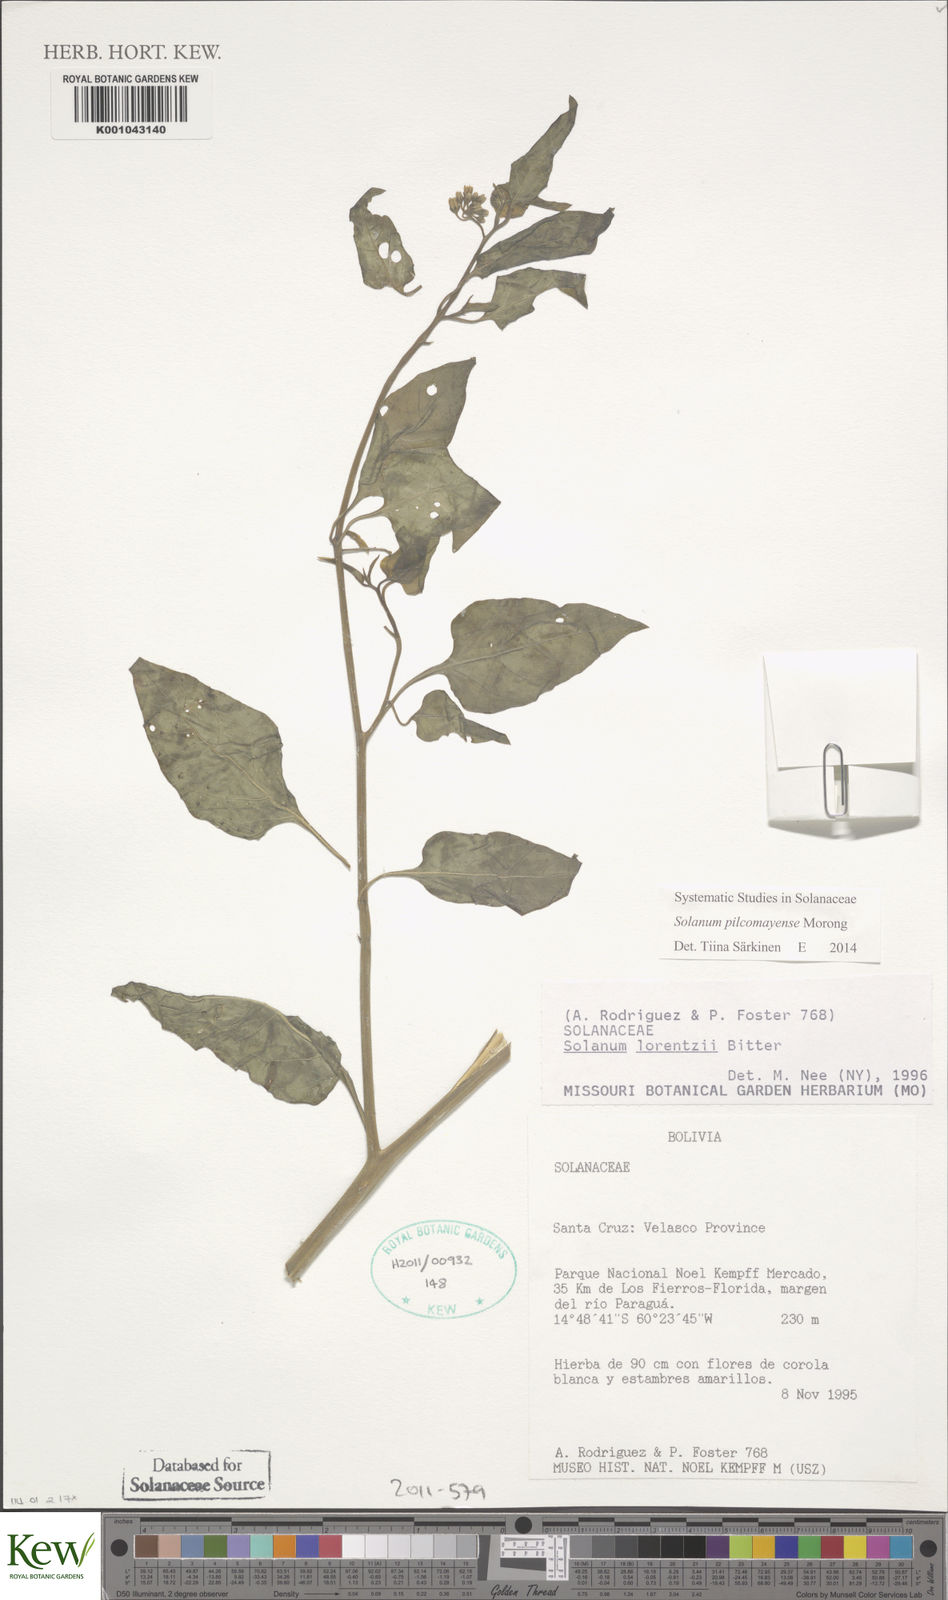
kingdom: Plantae
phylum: Tracheophyta
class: Magnoliopsida
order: Solanales
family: Solanaceae
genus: Solanum
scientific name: Solanum pilcomayense
